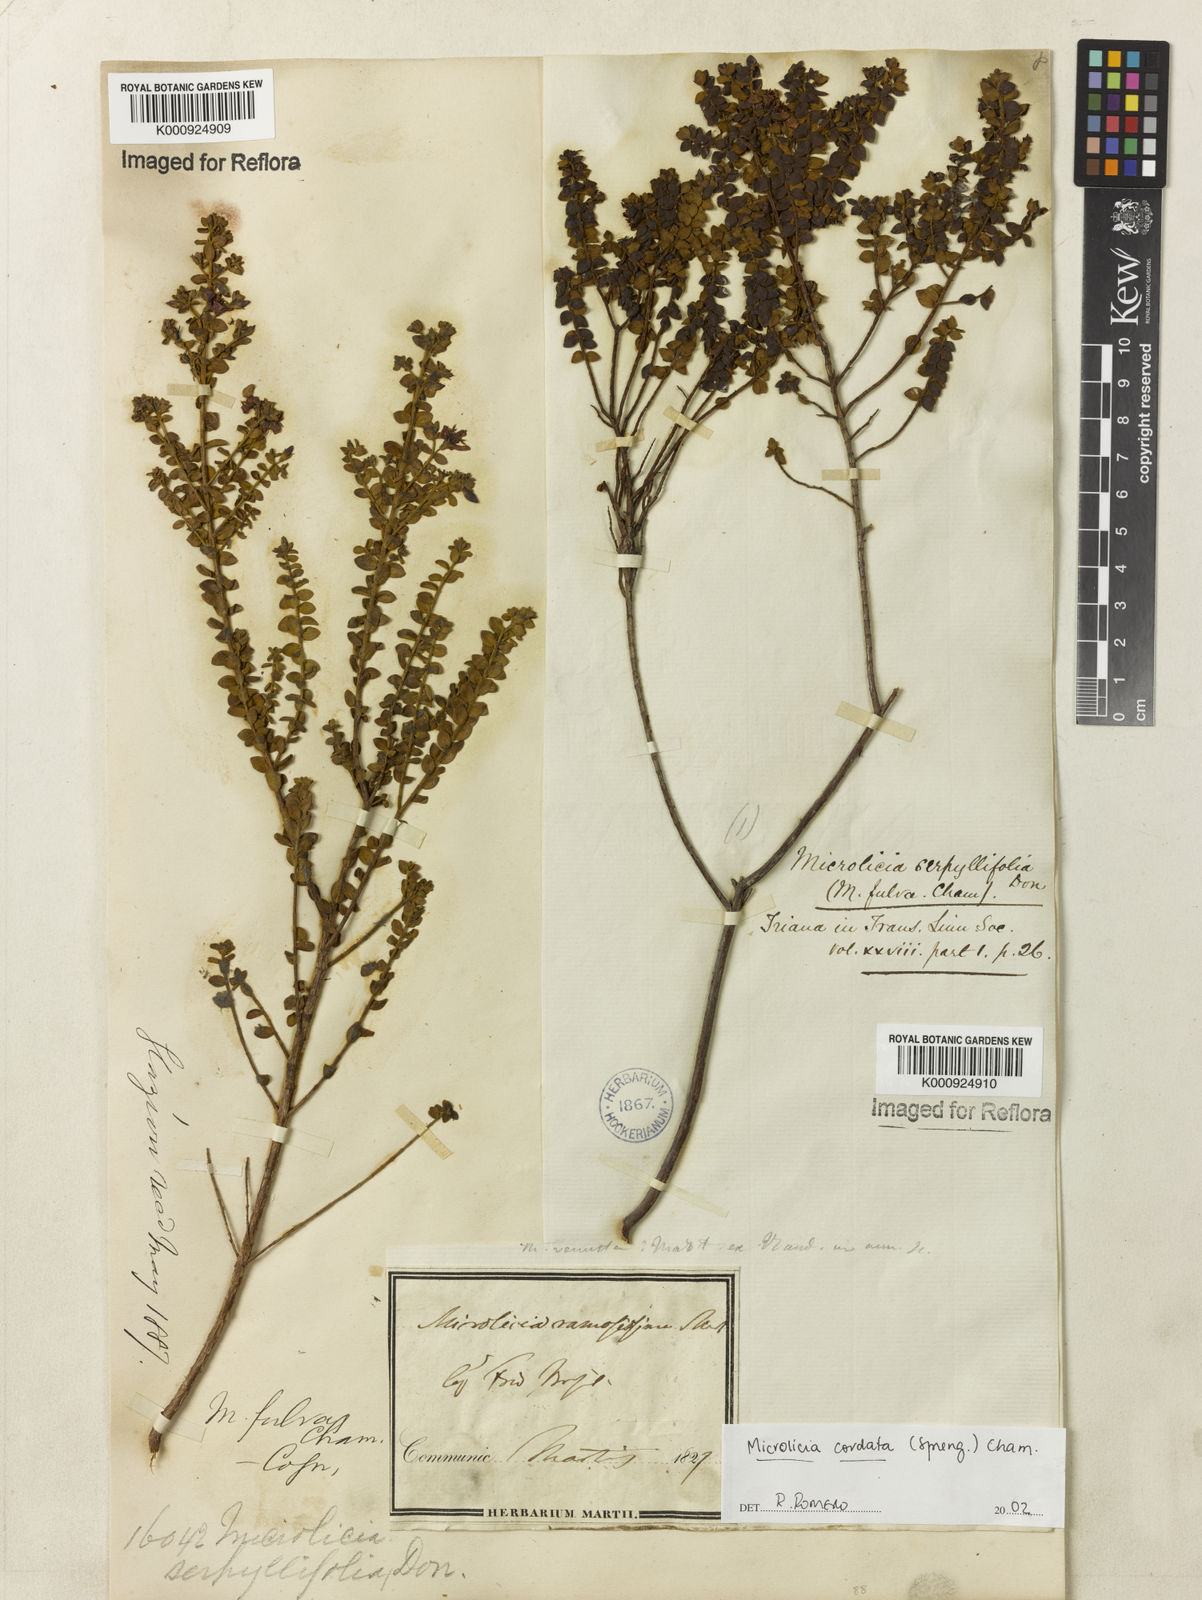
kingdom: Plantae
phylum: Tracheophyta
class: Magnoliopsida
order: Myrtales
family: Melastomataceae
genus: Microlicia
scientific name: Microlicia cordata
